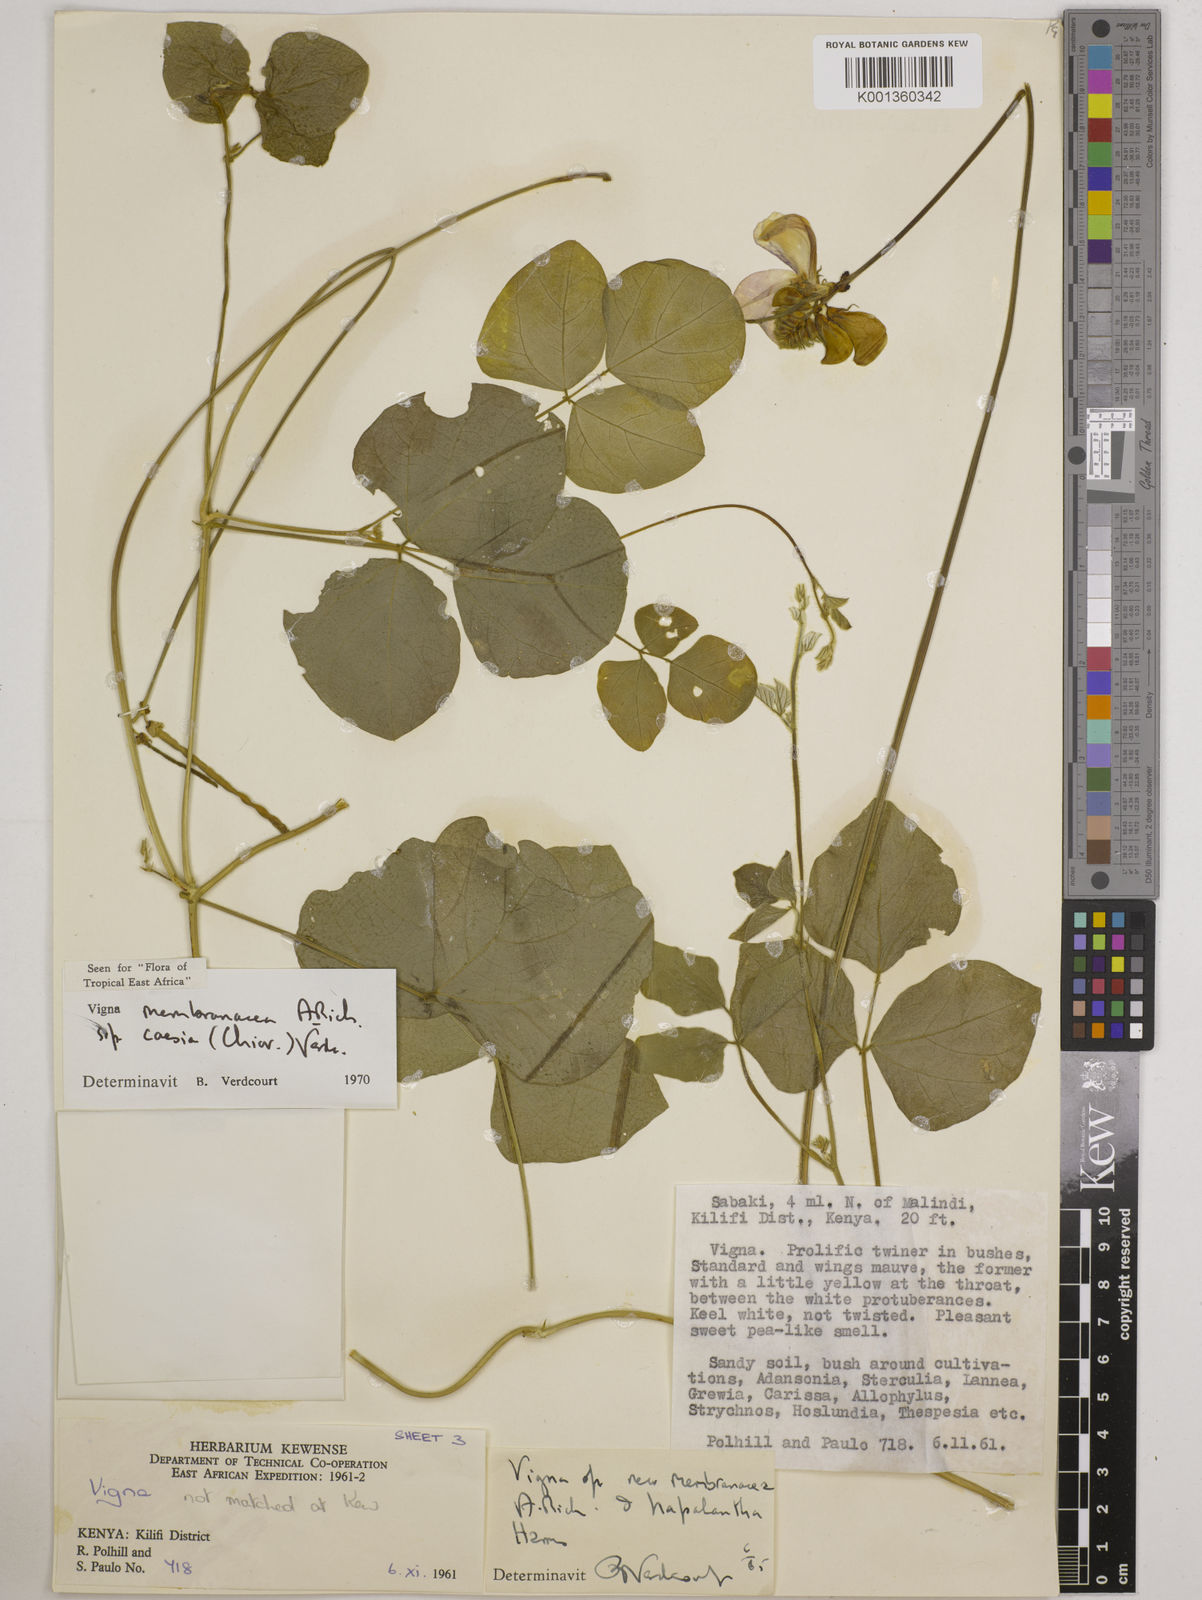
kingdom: Plantae
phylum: Tracheophyta
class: Magnoliopsida
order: Fabales
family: Fabaceae
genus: Vigna
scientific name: Vigna
